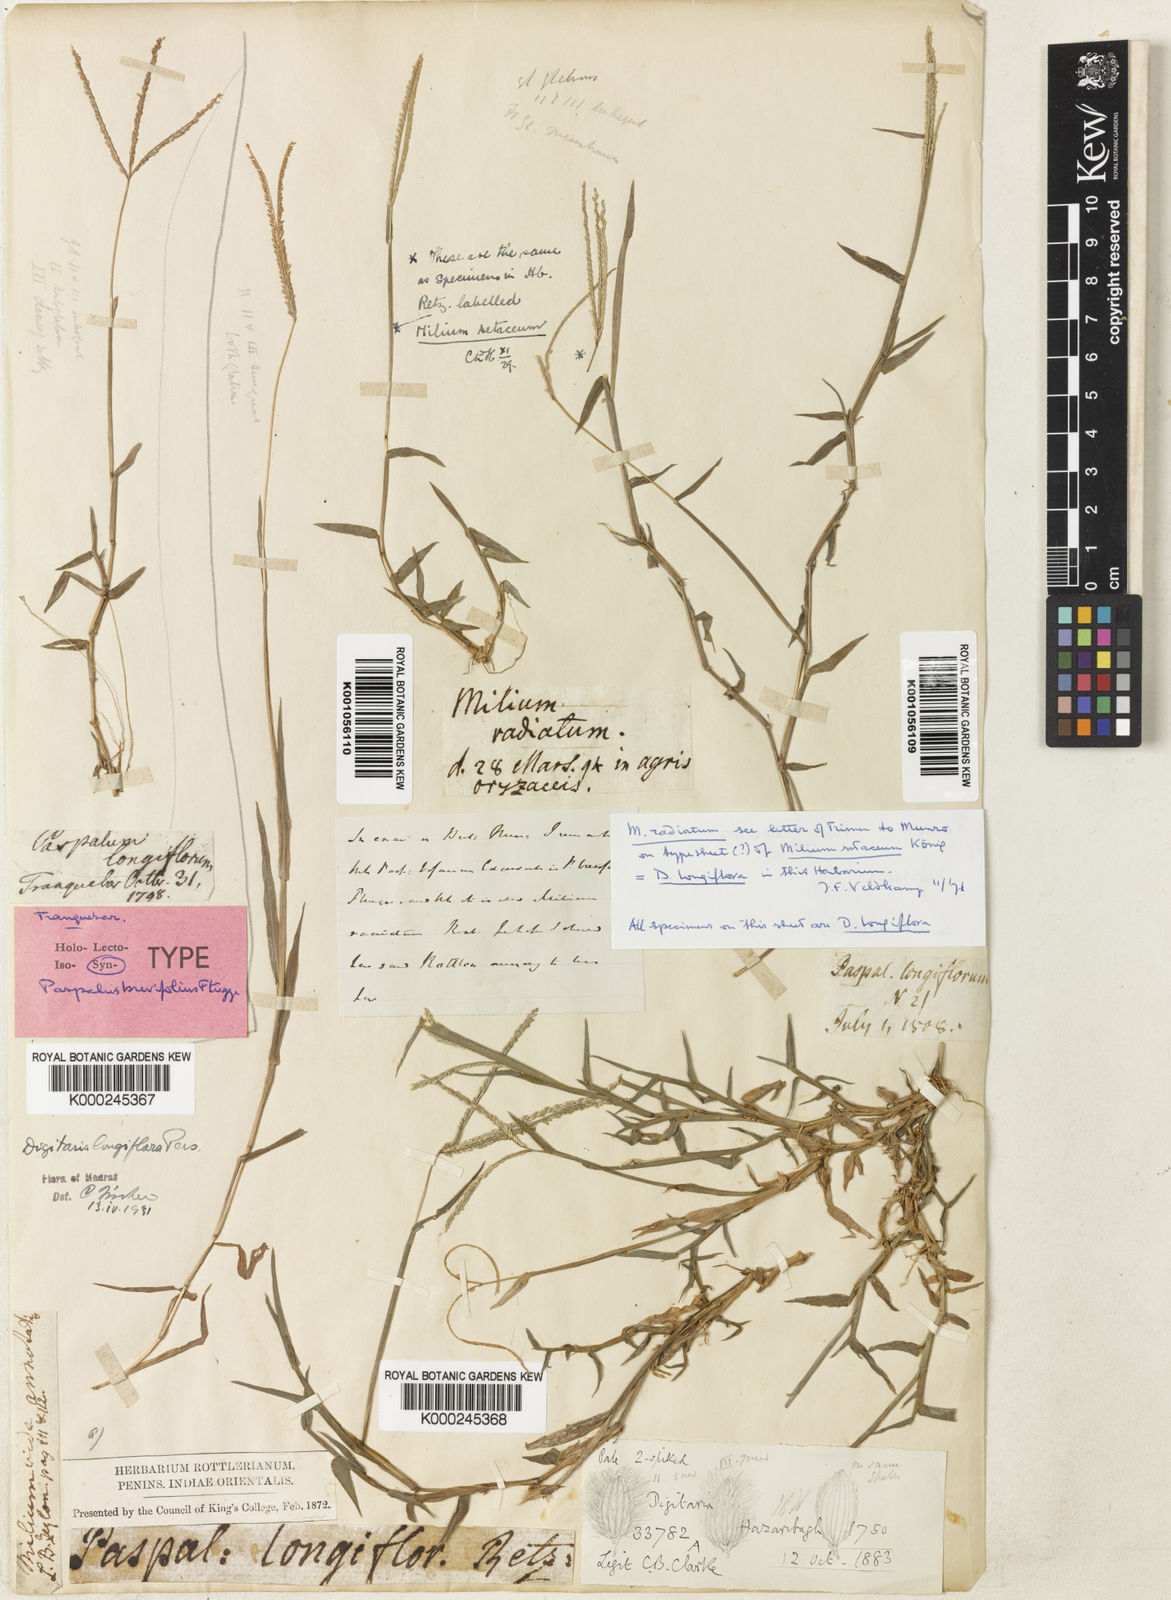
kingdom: Plantae
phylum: Tracheophyta
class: Liliopsida
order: Poales
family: Poaceae
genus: Digitaria
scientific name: Digitaria longiflora
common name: Wire crabgrass
